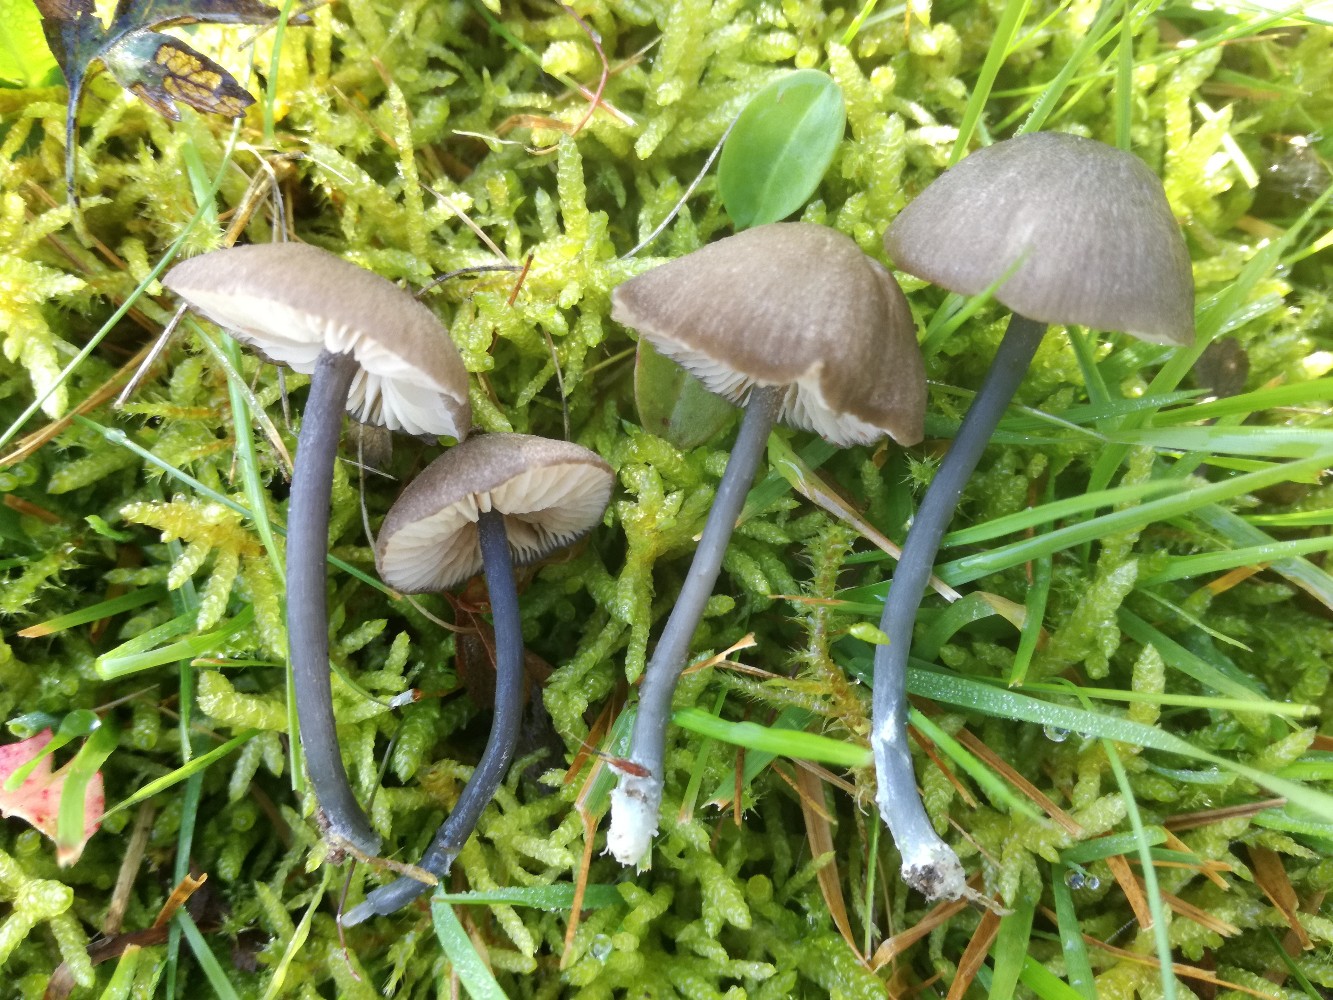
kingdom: Fungi
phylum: Basidiomycota
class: Agaricomycetes
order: Agaricales
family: Entolomataceae
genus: Entoloma
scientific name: Entoloma
